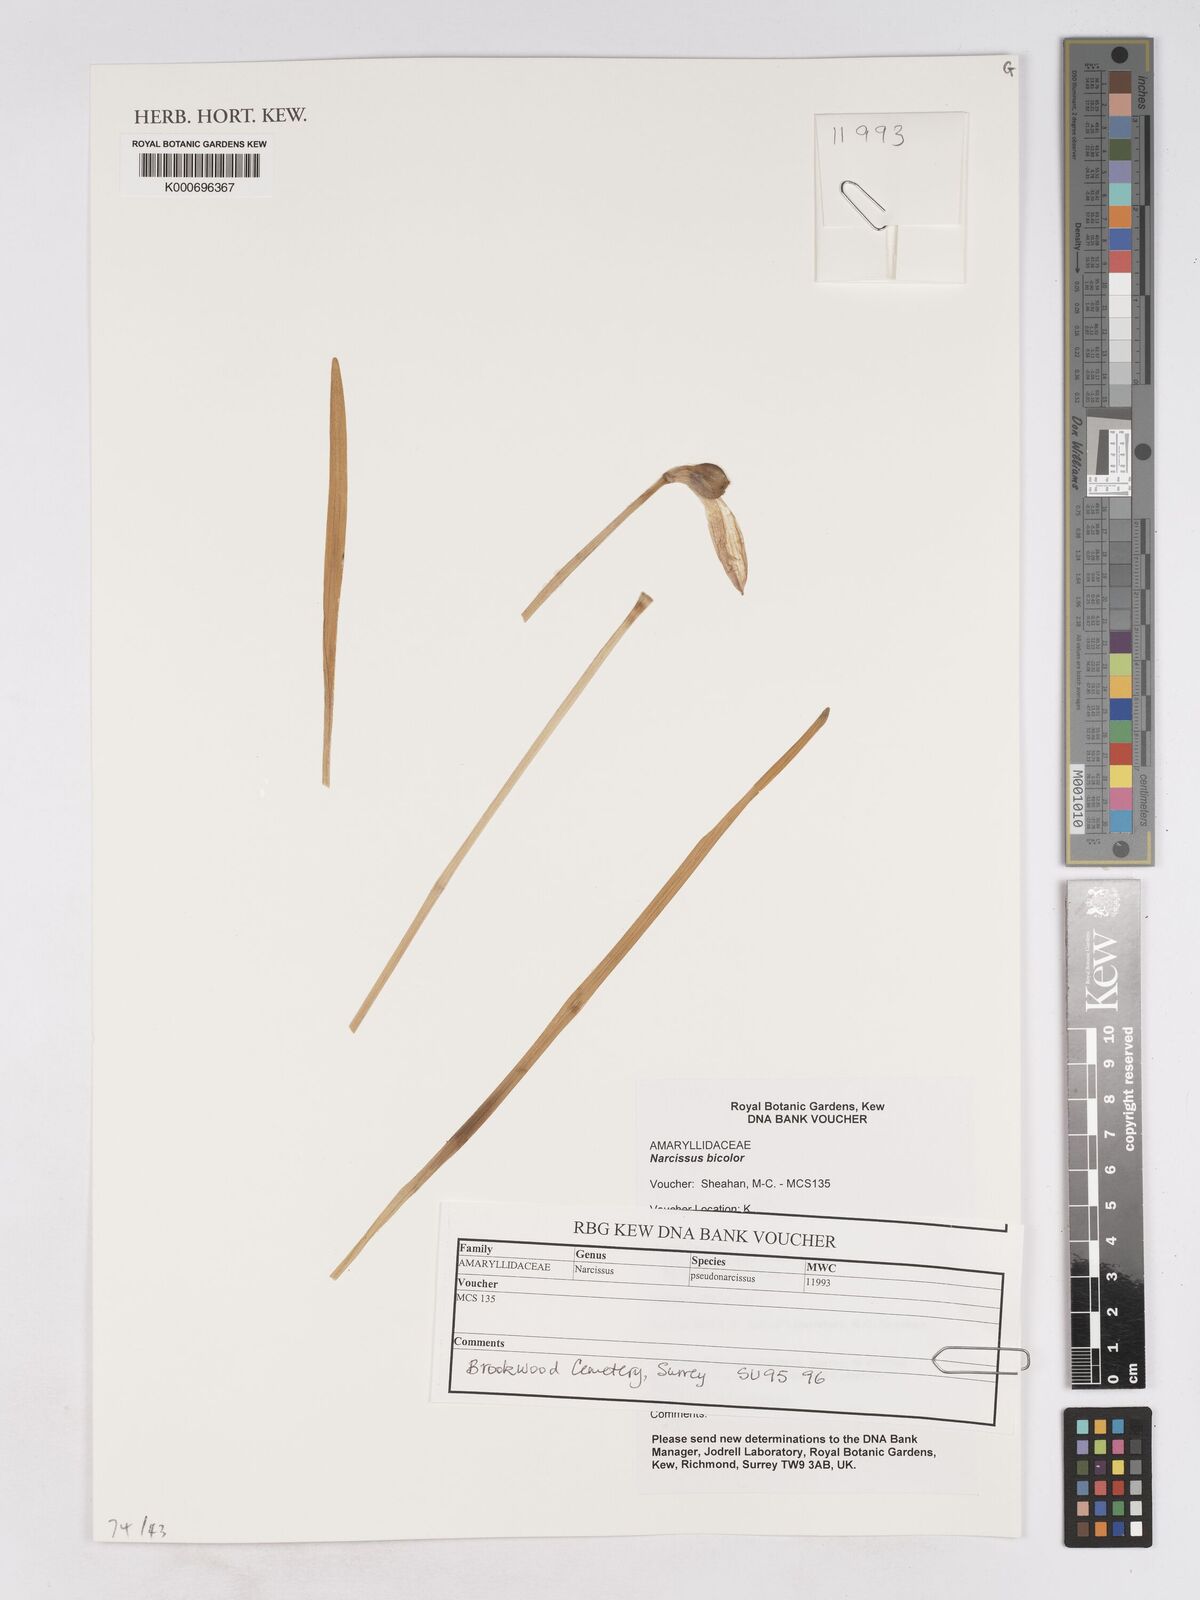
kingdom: Plantae
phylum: Tracheophyta
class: Liliopsida
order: Asparagales
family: Amaryllidaceae
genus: Narcissus
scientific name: Narcissus bicolor
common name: Two-color daffodil
